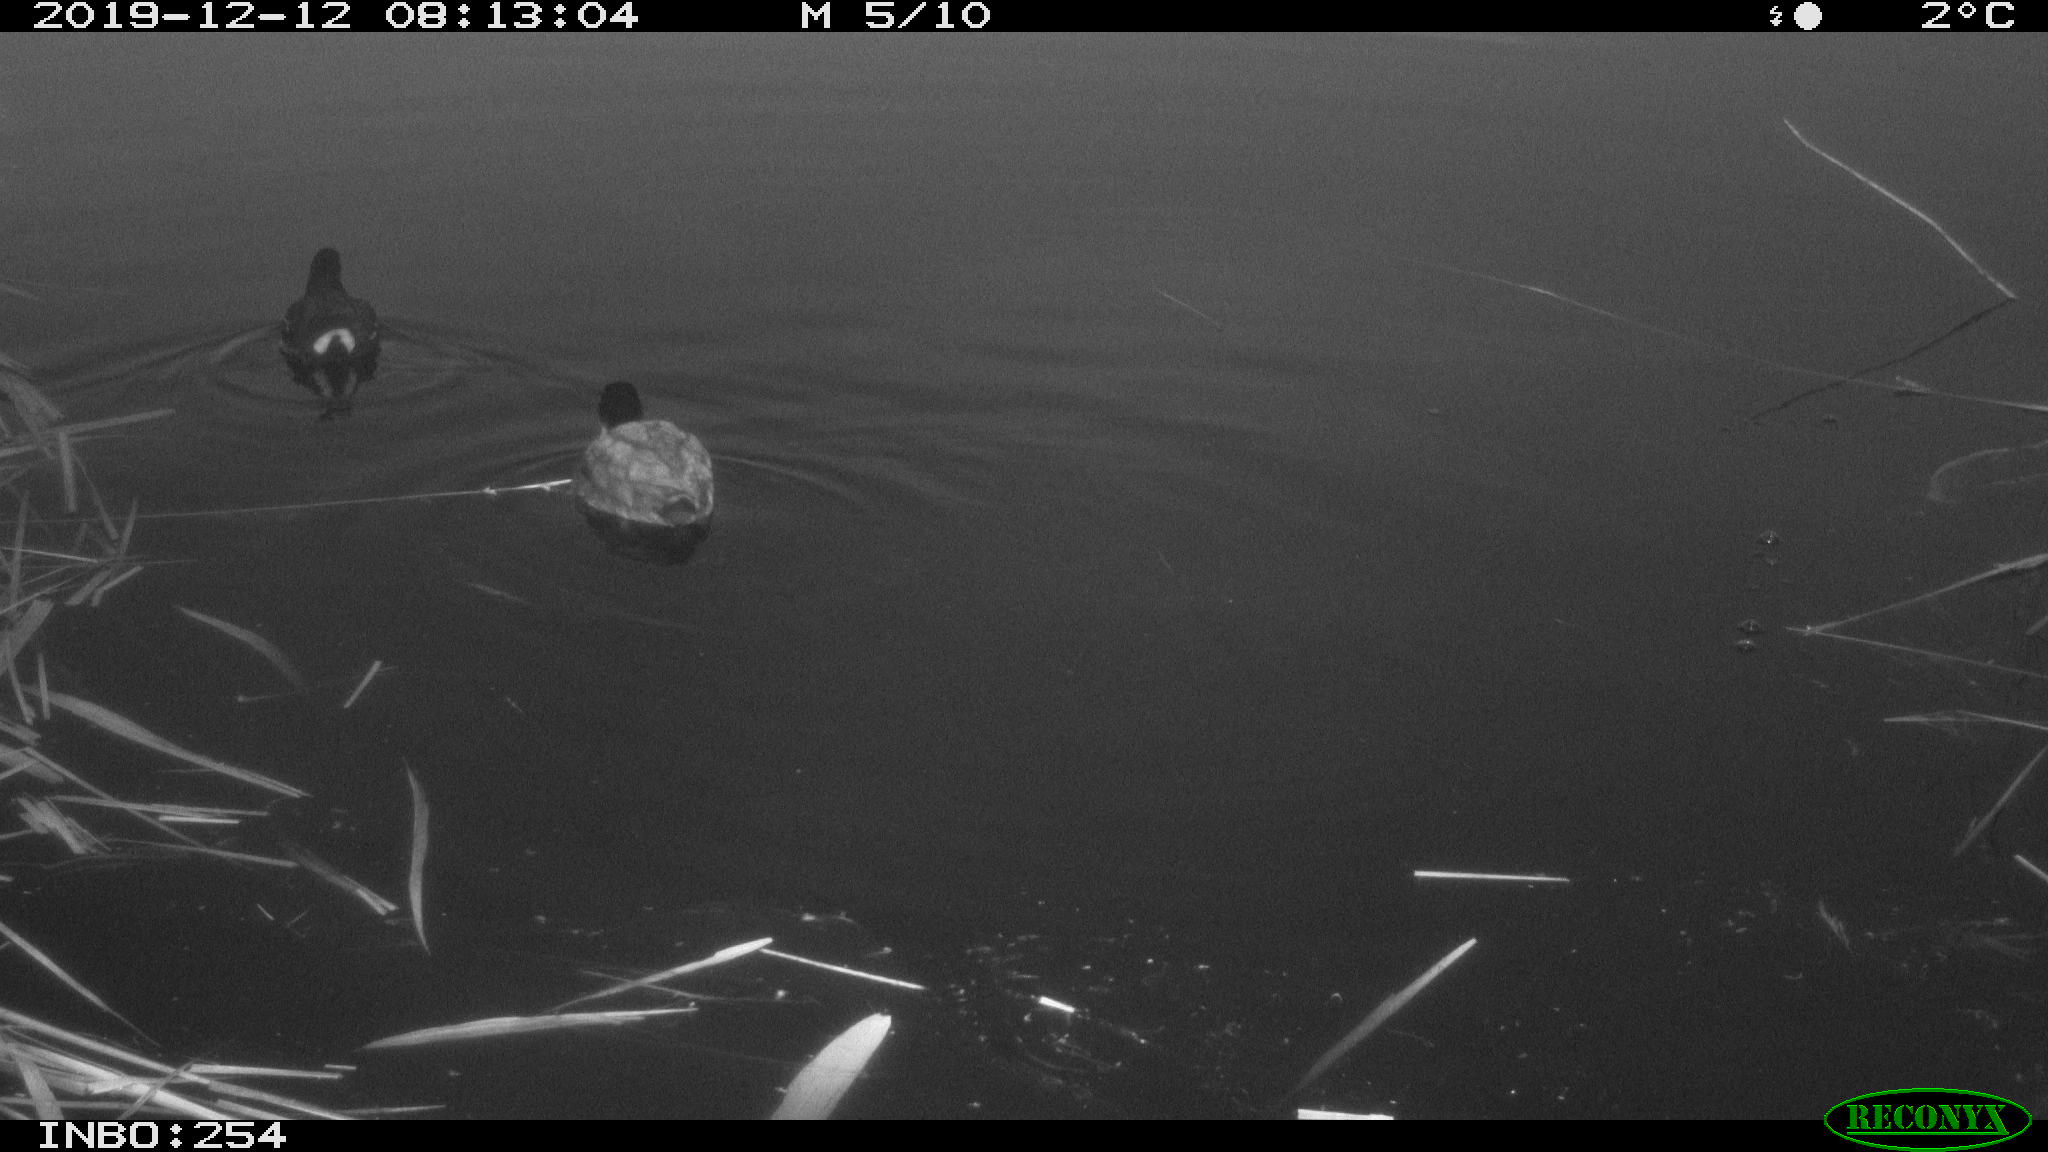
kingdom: Animalia
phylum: Chordata
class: Aves
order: Gruiformes
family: Rallidae
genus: Gallinula
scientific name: Gallinula chloropus
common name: Common moorhen
